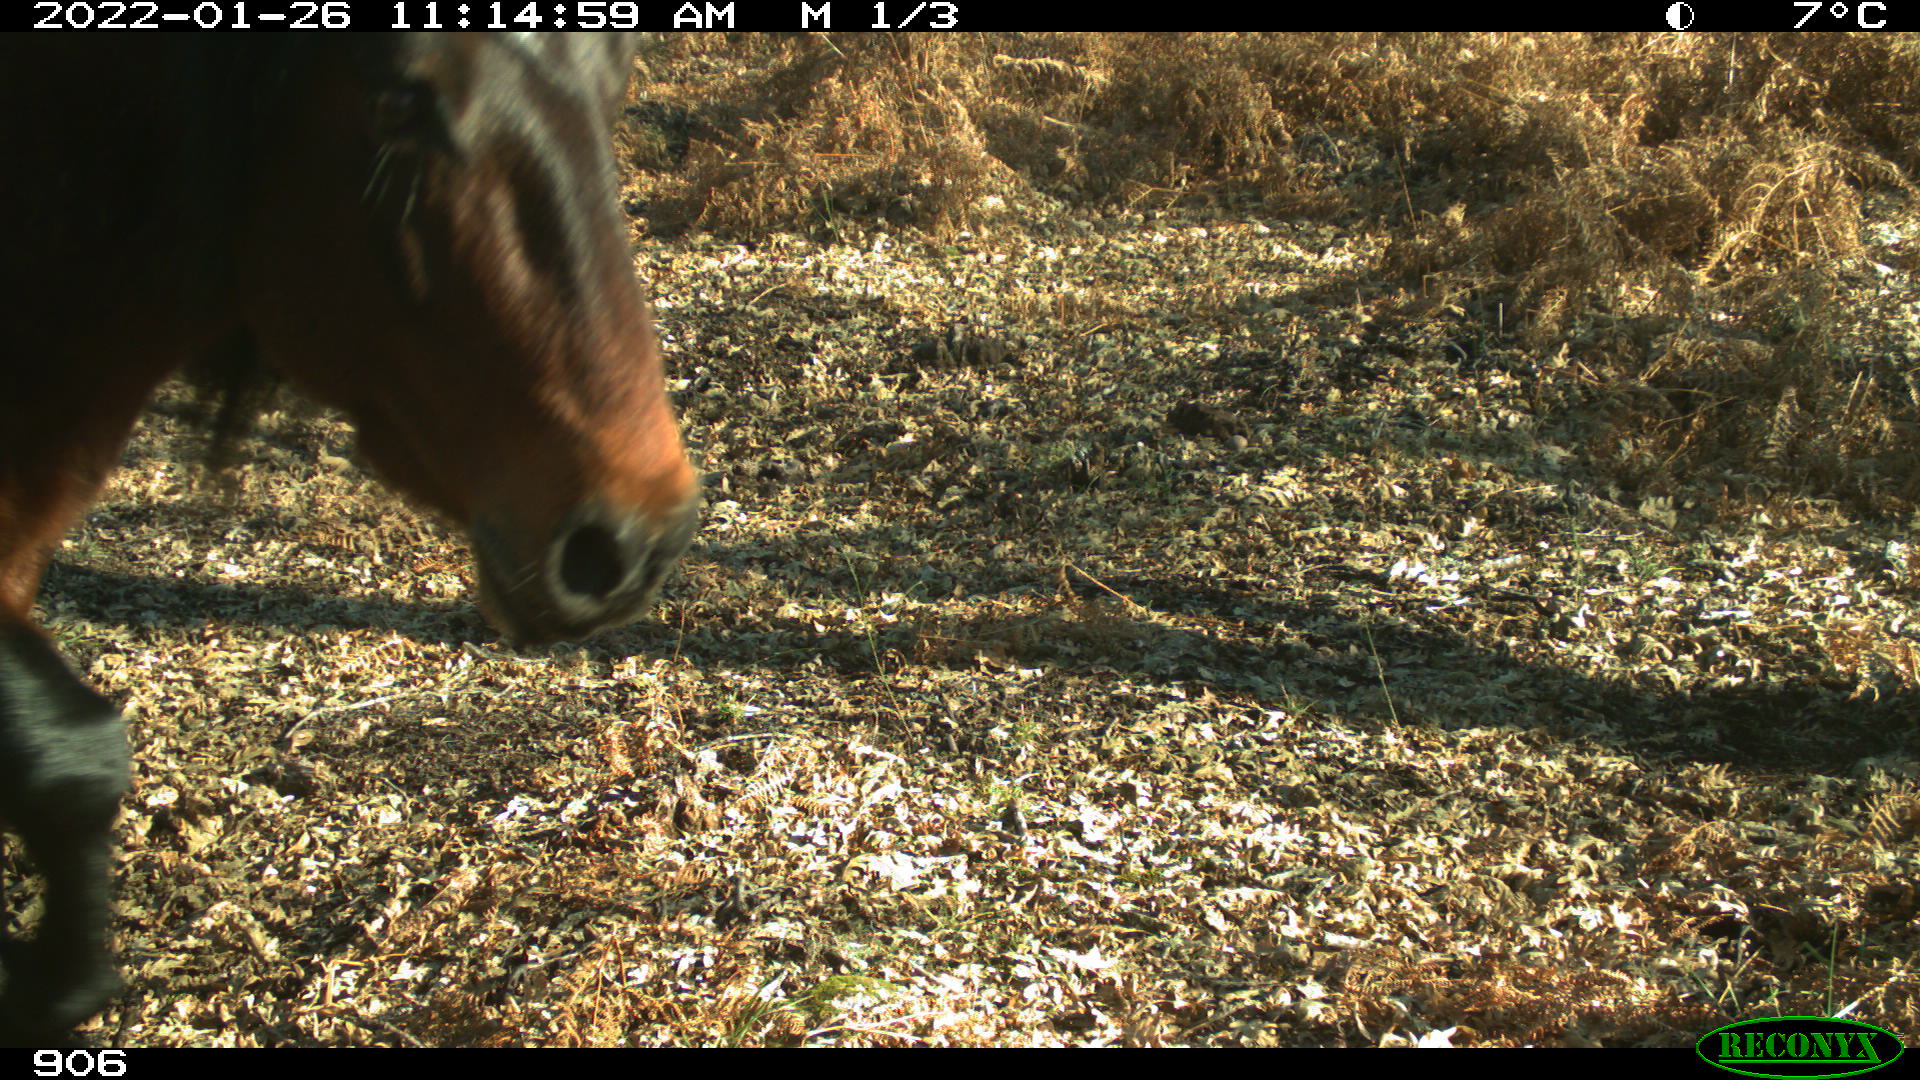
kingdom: Animalia
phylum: Chordata
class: Mammalia
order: Perissodactyla
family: Equidae
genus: Equus
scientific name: Equus caballus
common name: Horse
